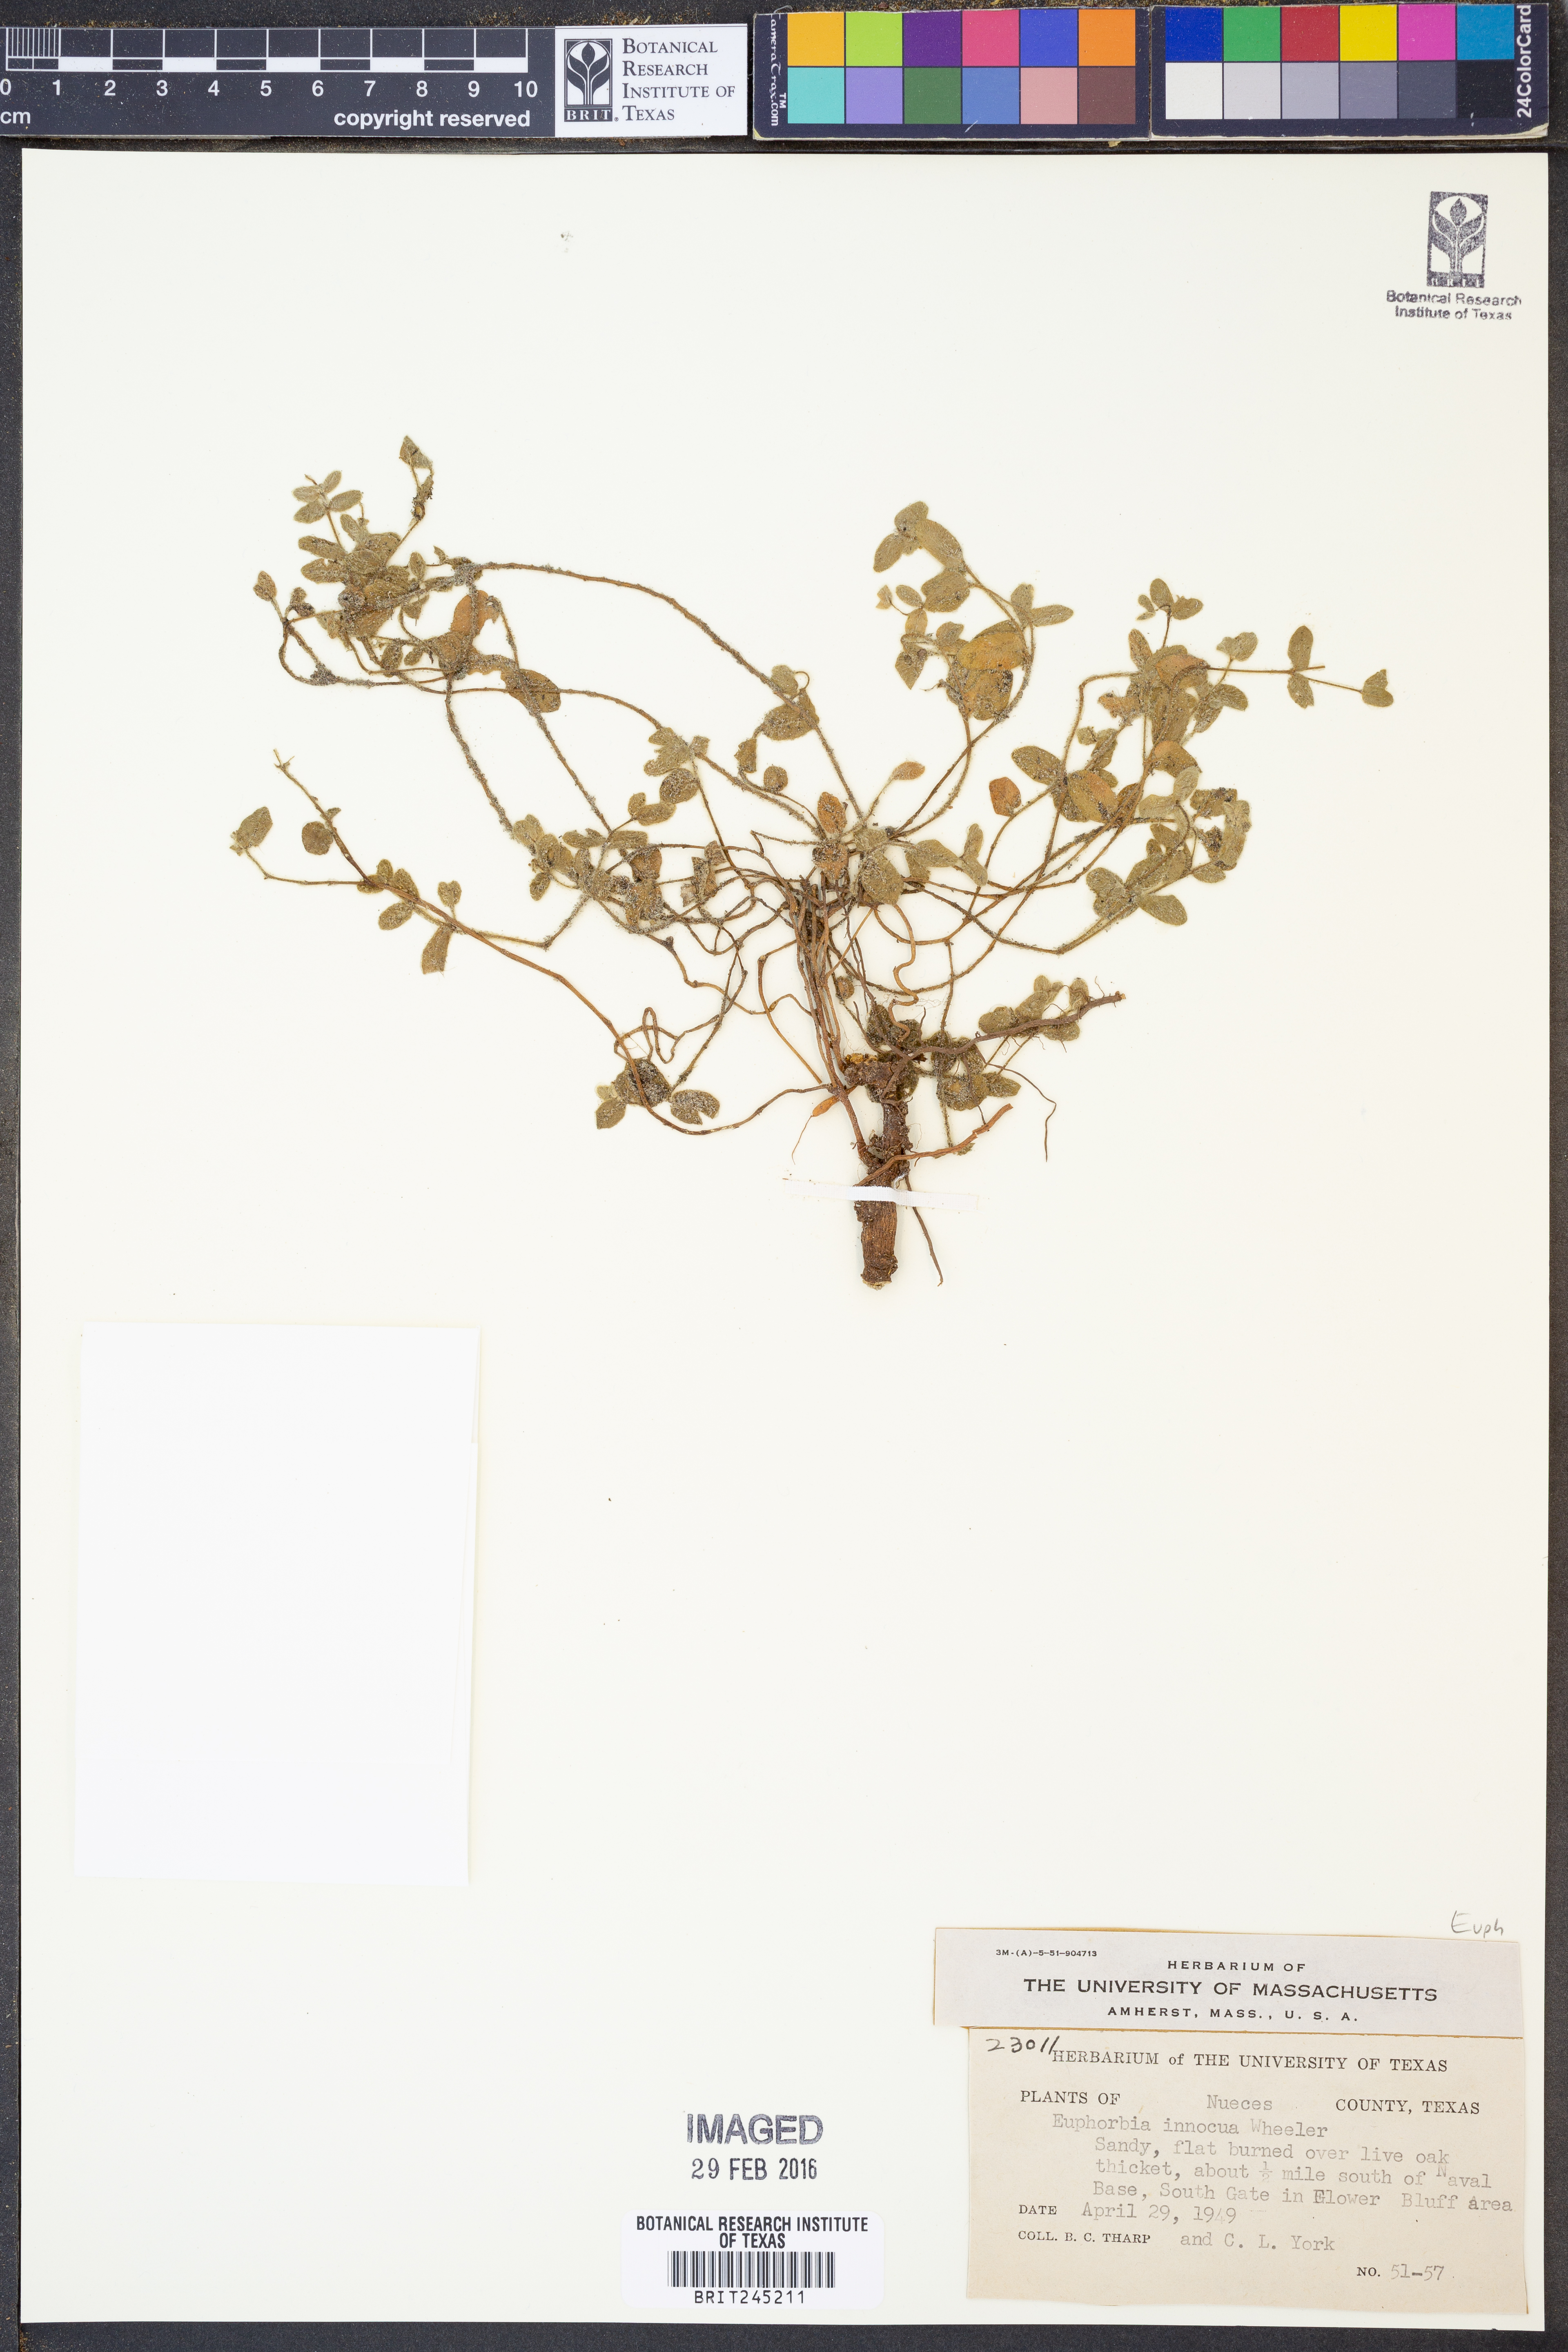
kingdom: Plantae
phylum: Tracheophyta
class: Magnoliopsida
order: Malpighiales
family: Euphorbiaceae
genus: Euphorbia
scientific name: Euphorbia innocua
